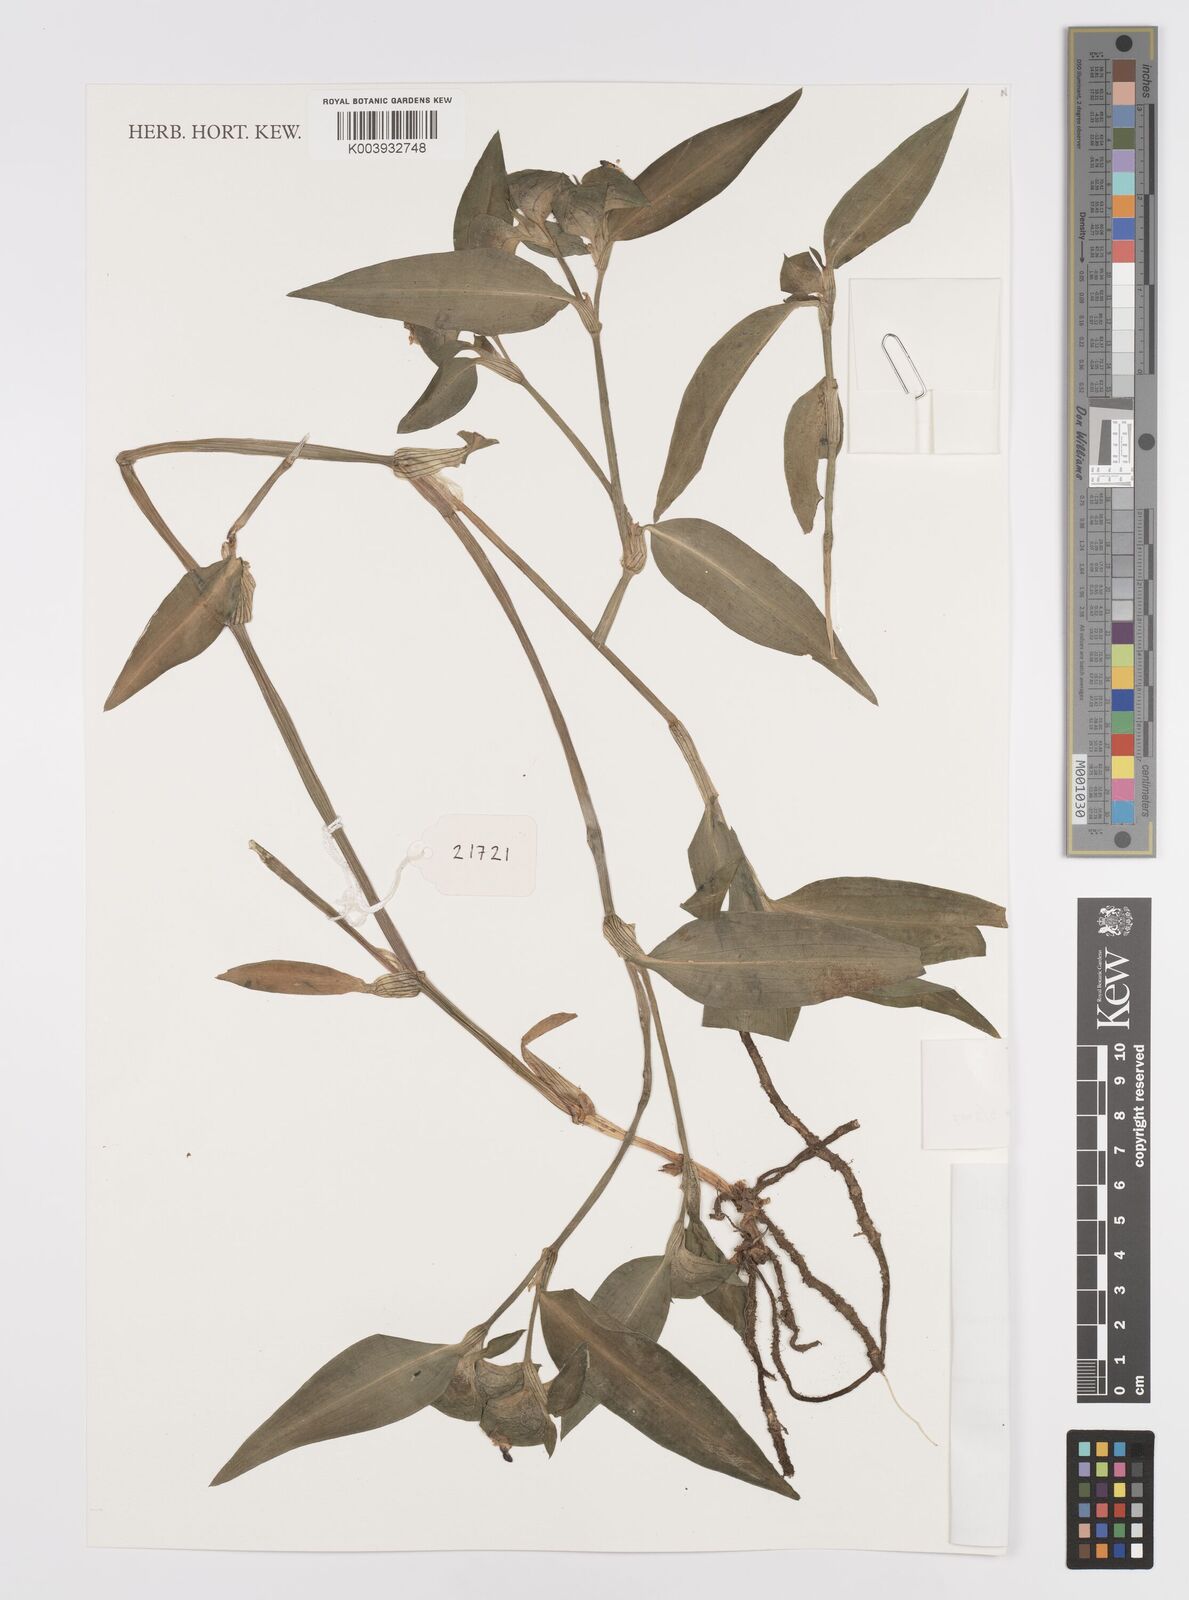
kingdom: Plantae
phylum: Tracheophyta
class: Liliopsida
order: Commelinales
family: Commelinaceae
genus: Commelina
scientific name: Commelina erecta
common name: Blousel blommetjie
